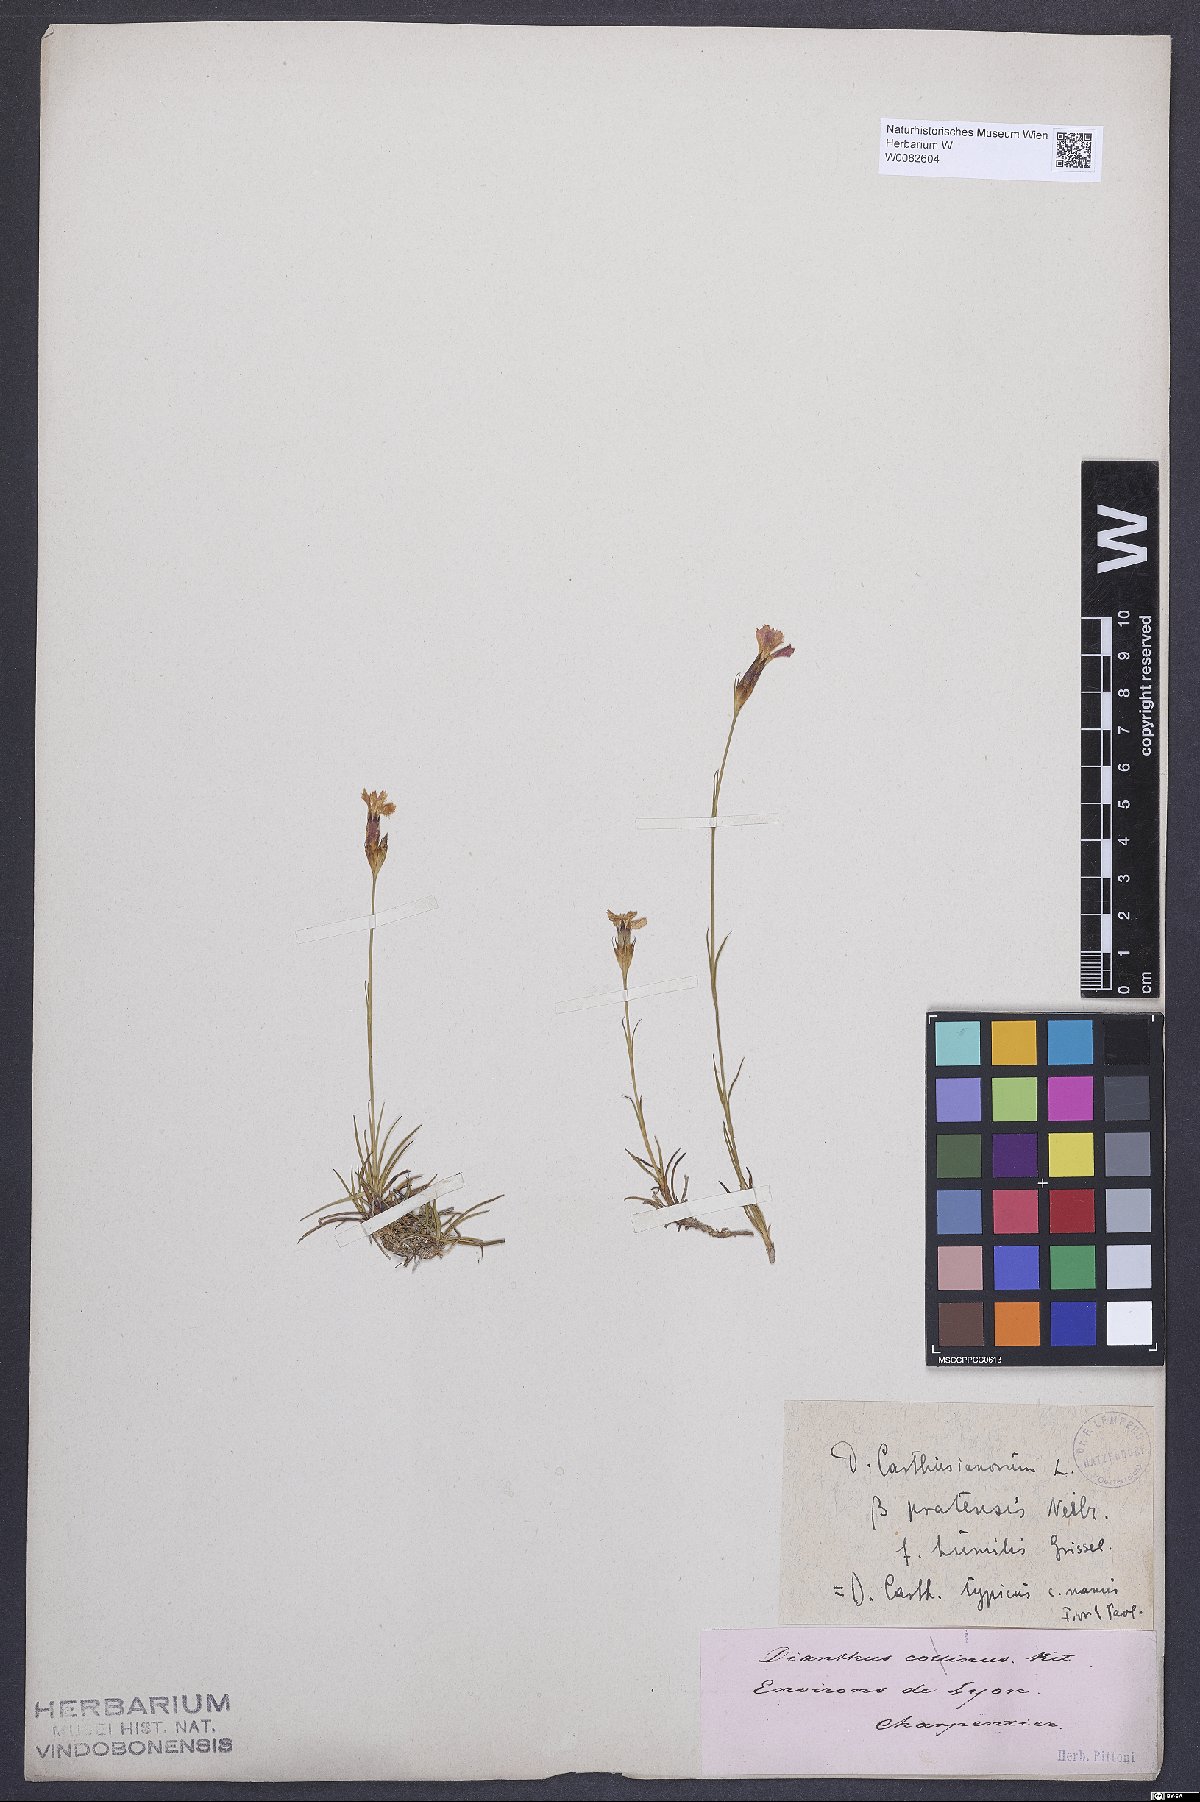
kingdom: Plantae
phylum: Tracheophyta
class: Magnoliopsida
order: Caryophyllales
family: Caryophyllaceae
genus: Dianthus
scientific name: Dianthus carthusianorum
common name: Carthusian pink
